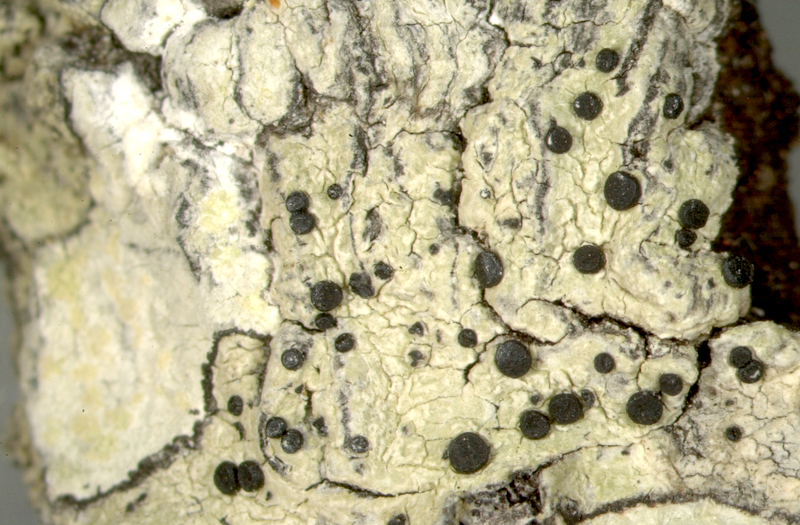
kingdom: Fungi
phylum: Ascomycota
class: Lecanoromycetes
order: Lecanorales
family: Lecanoraceae
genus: Lecidella
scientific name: Lecidella
